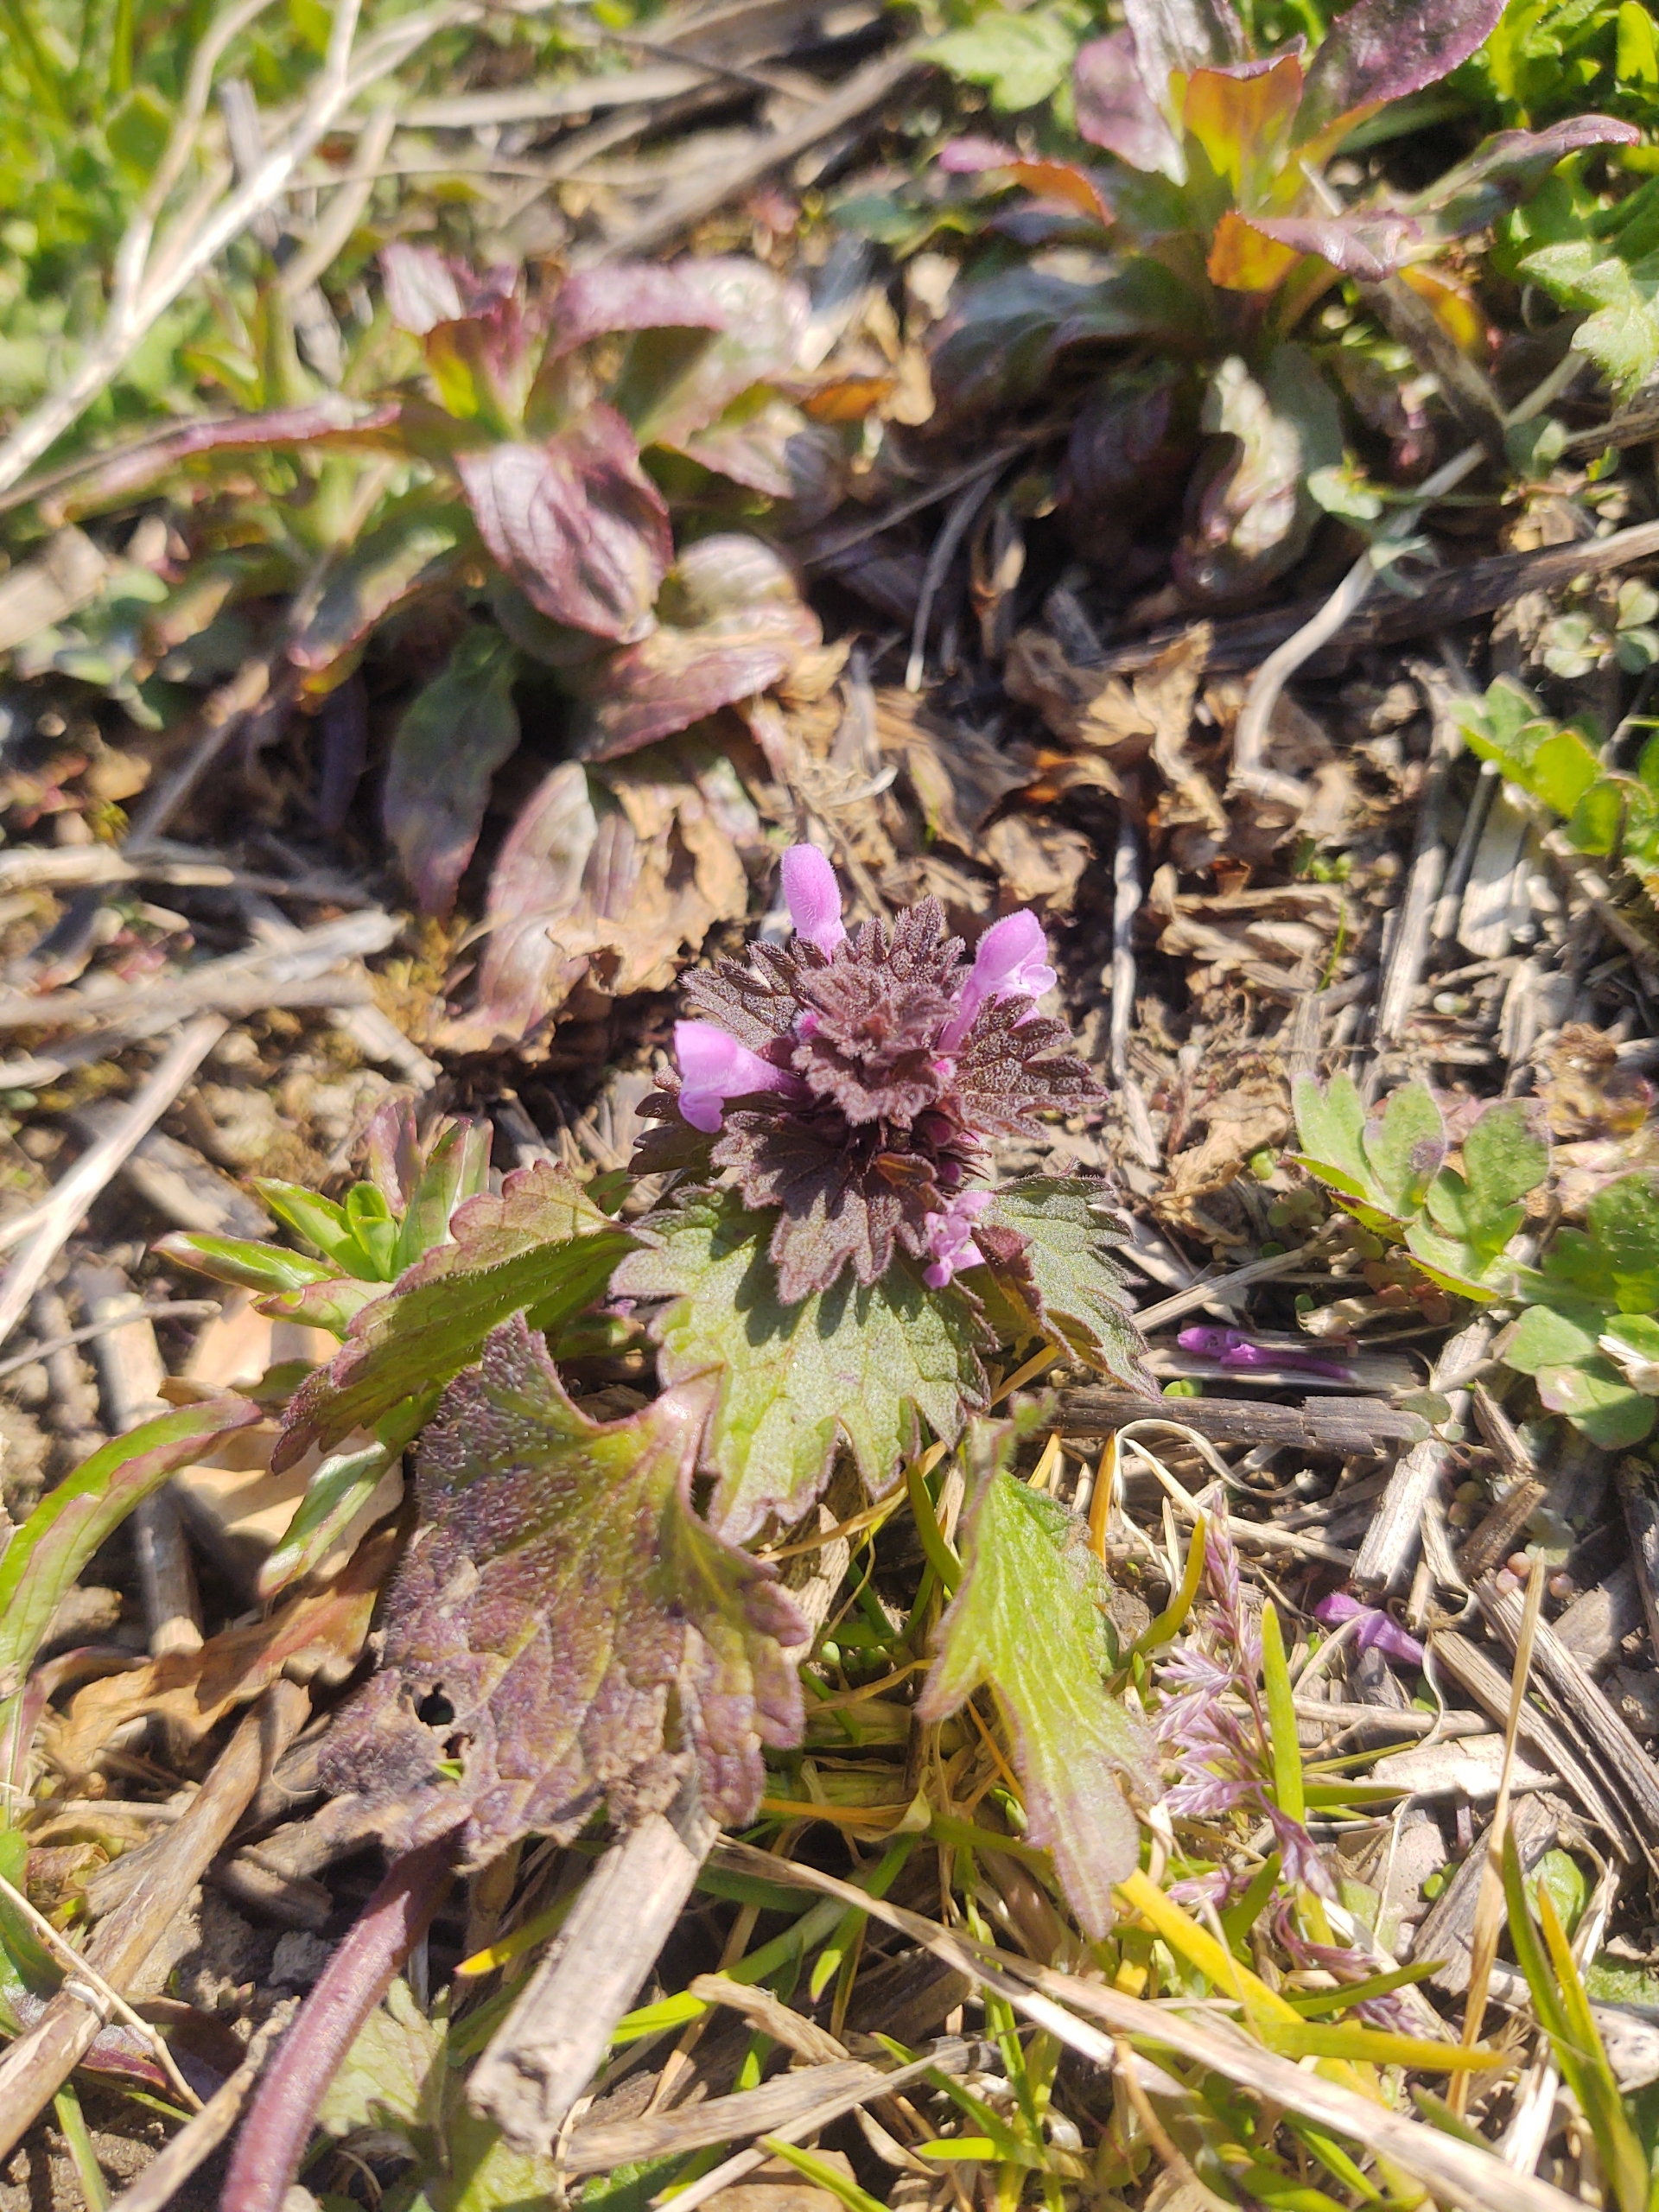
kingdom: Plantae
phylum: Tracheophyta
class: Magnoliopsida
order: Lamiales
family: Lamiaceae
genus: Lamium
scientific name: Lamium hybridum
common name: Fliget tvetand
